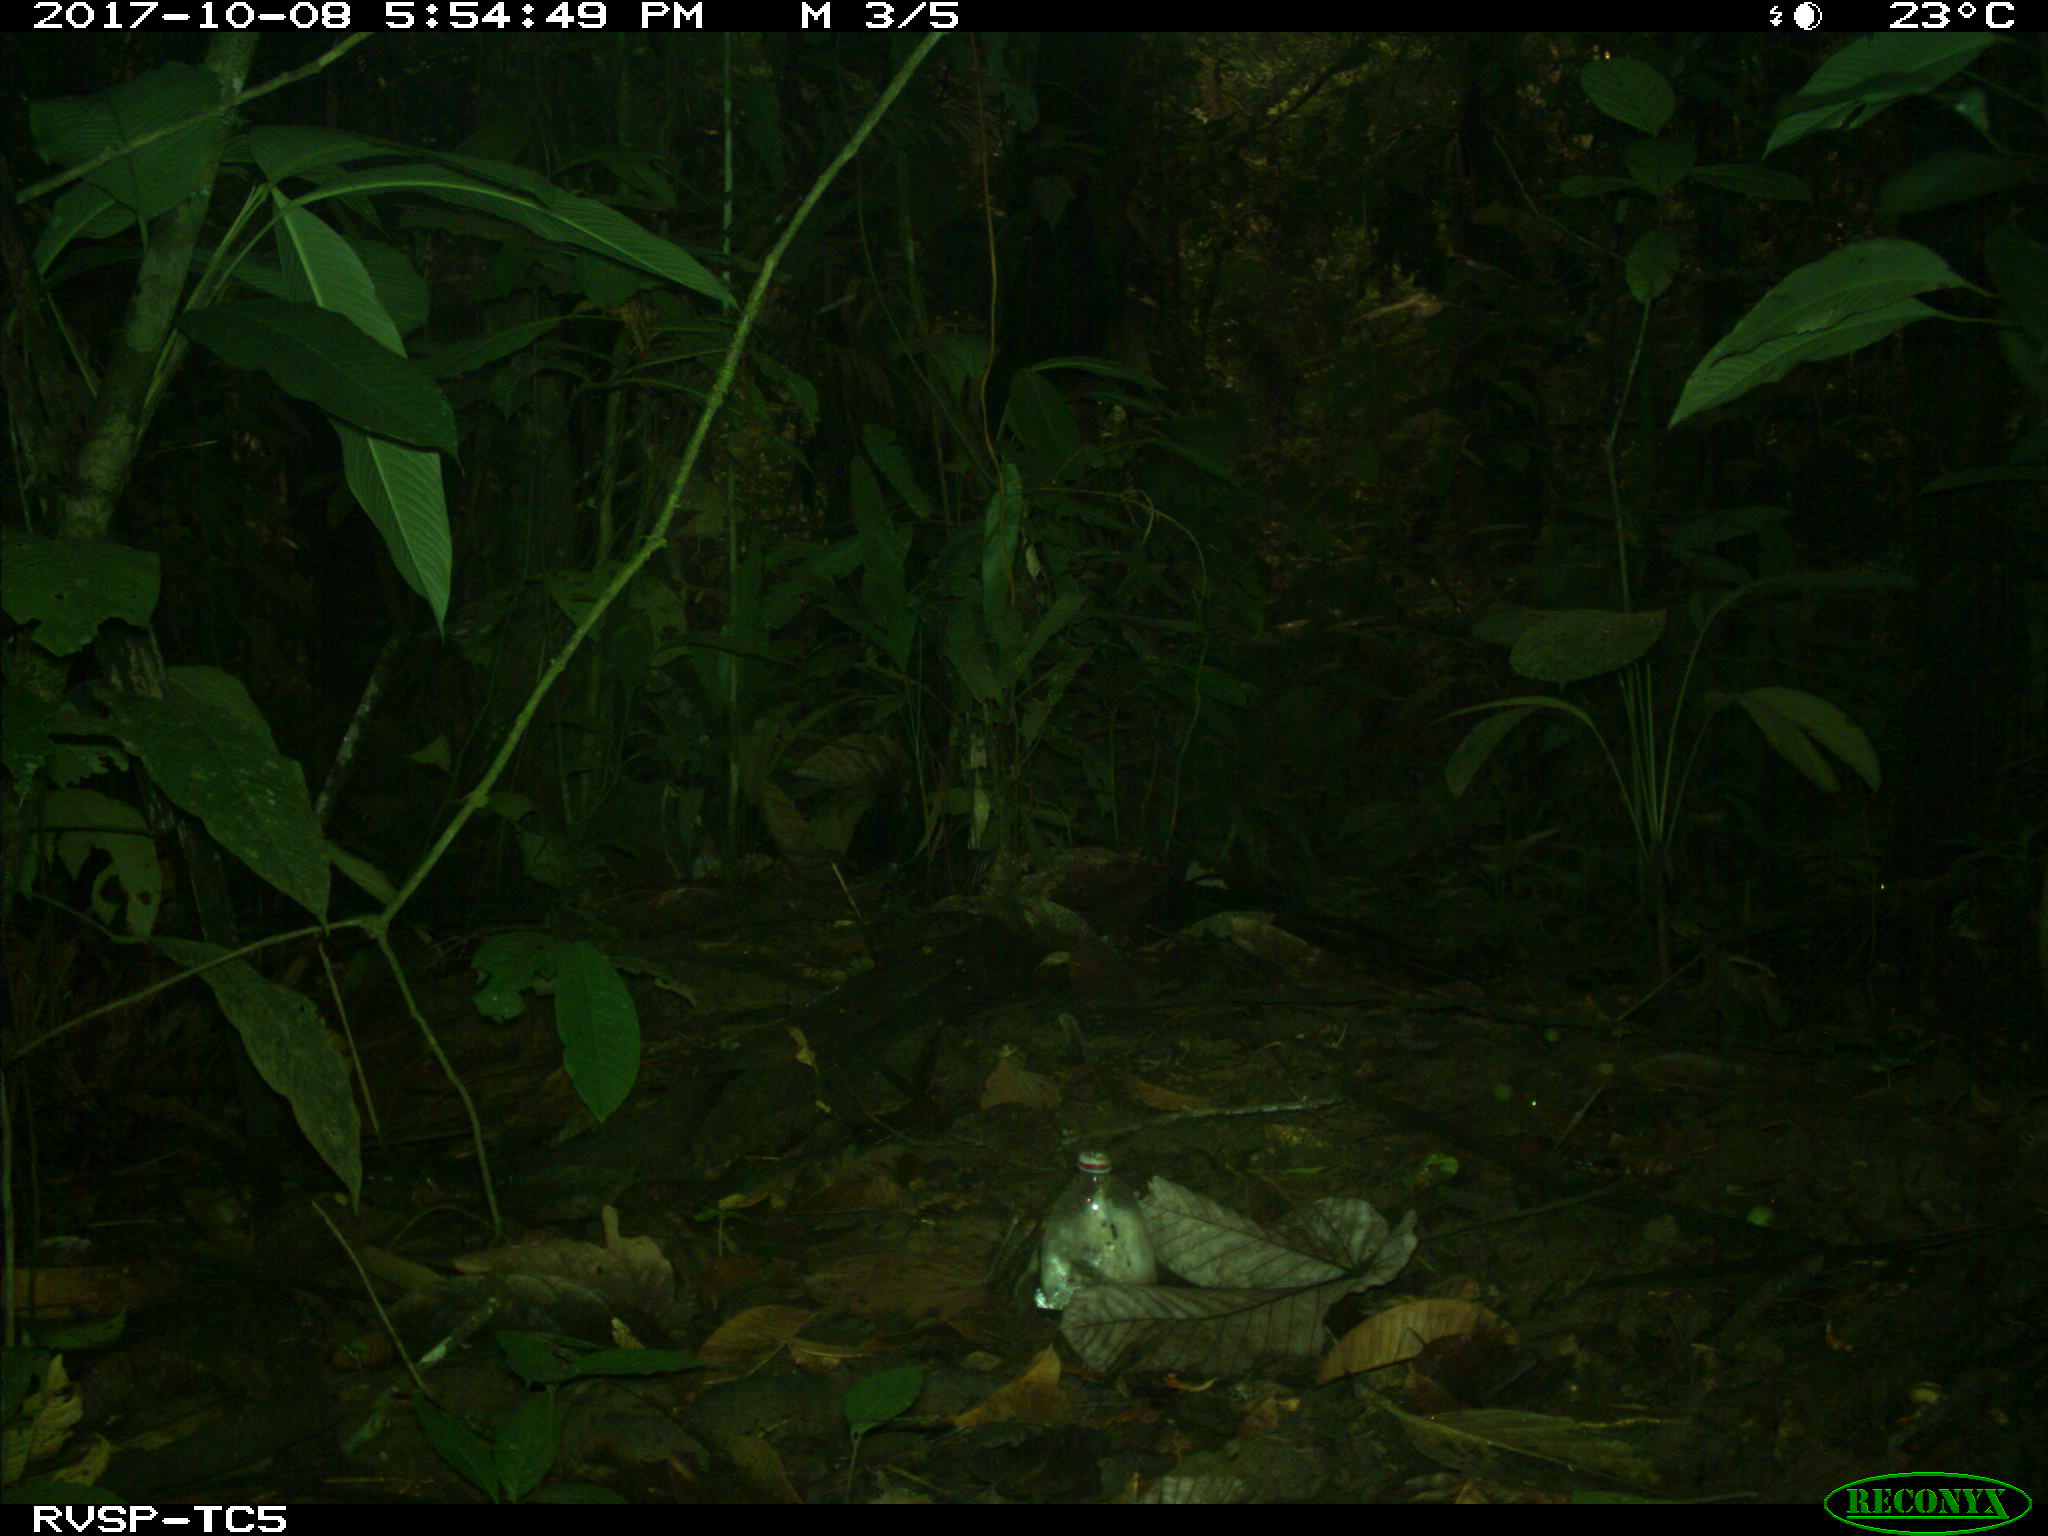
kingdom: Animalia
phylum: Chordata
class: Mammalia
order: Artiodactyla
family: Tayassuidae
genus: Tayassu
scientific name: Tayassu pecari
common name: White-lipped peccary
